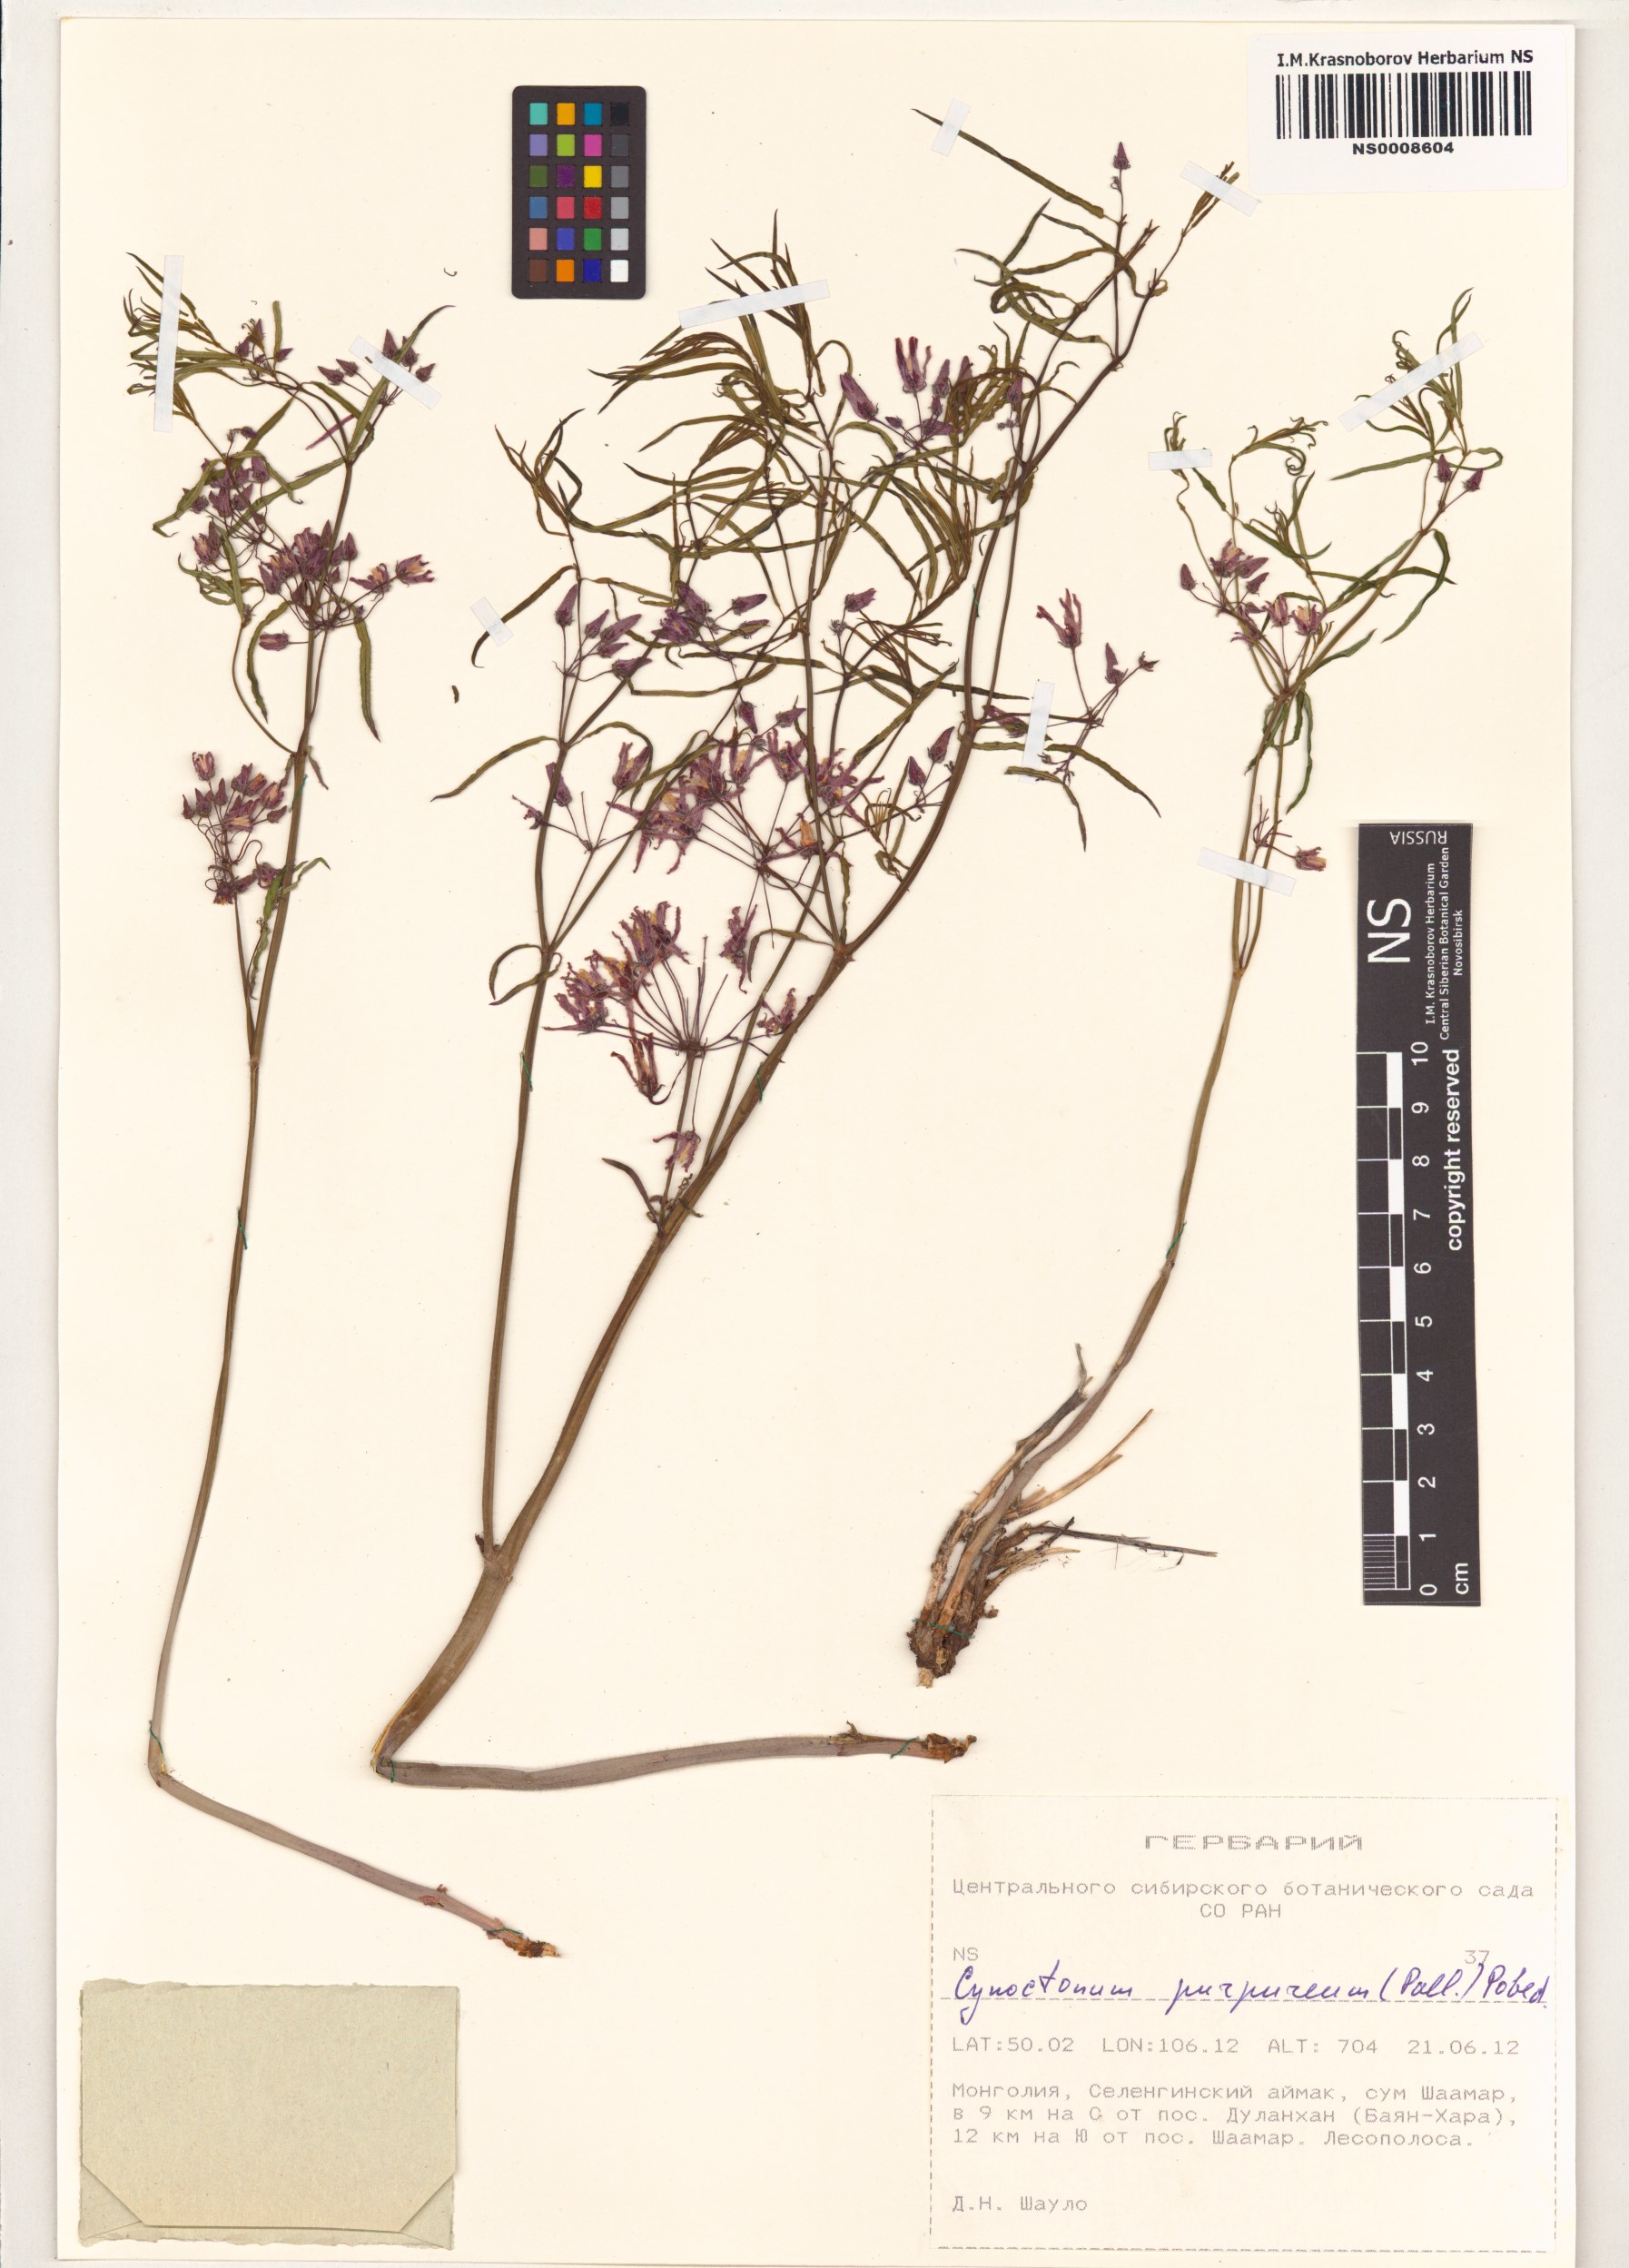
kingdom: Plantae
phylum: Tracheophyta
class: Magnoliopsida
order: Gentianales
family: Apocynaceae
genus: Vincetoxicum
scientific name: Vincetoxicum purpureum
